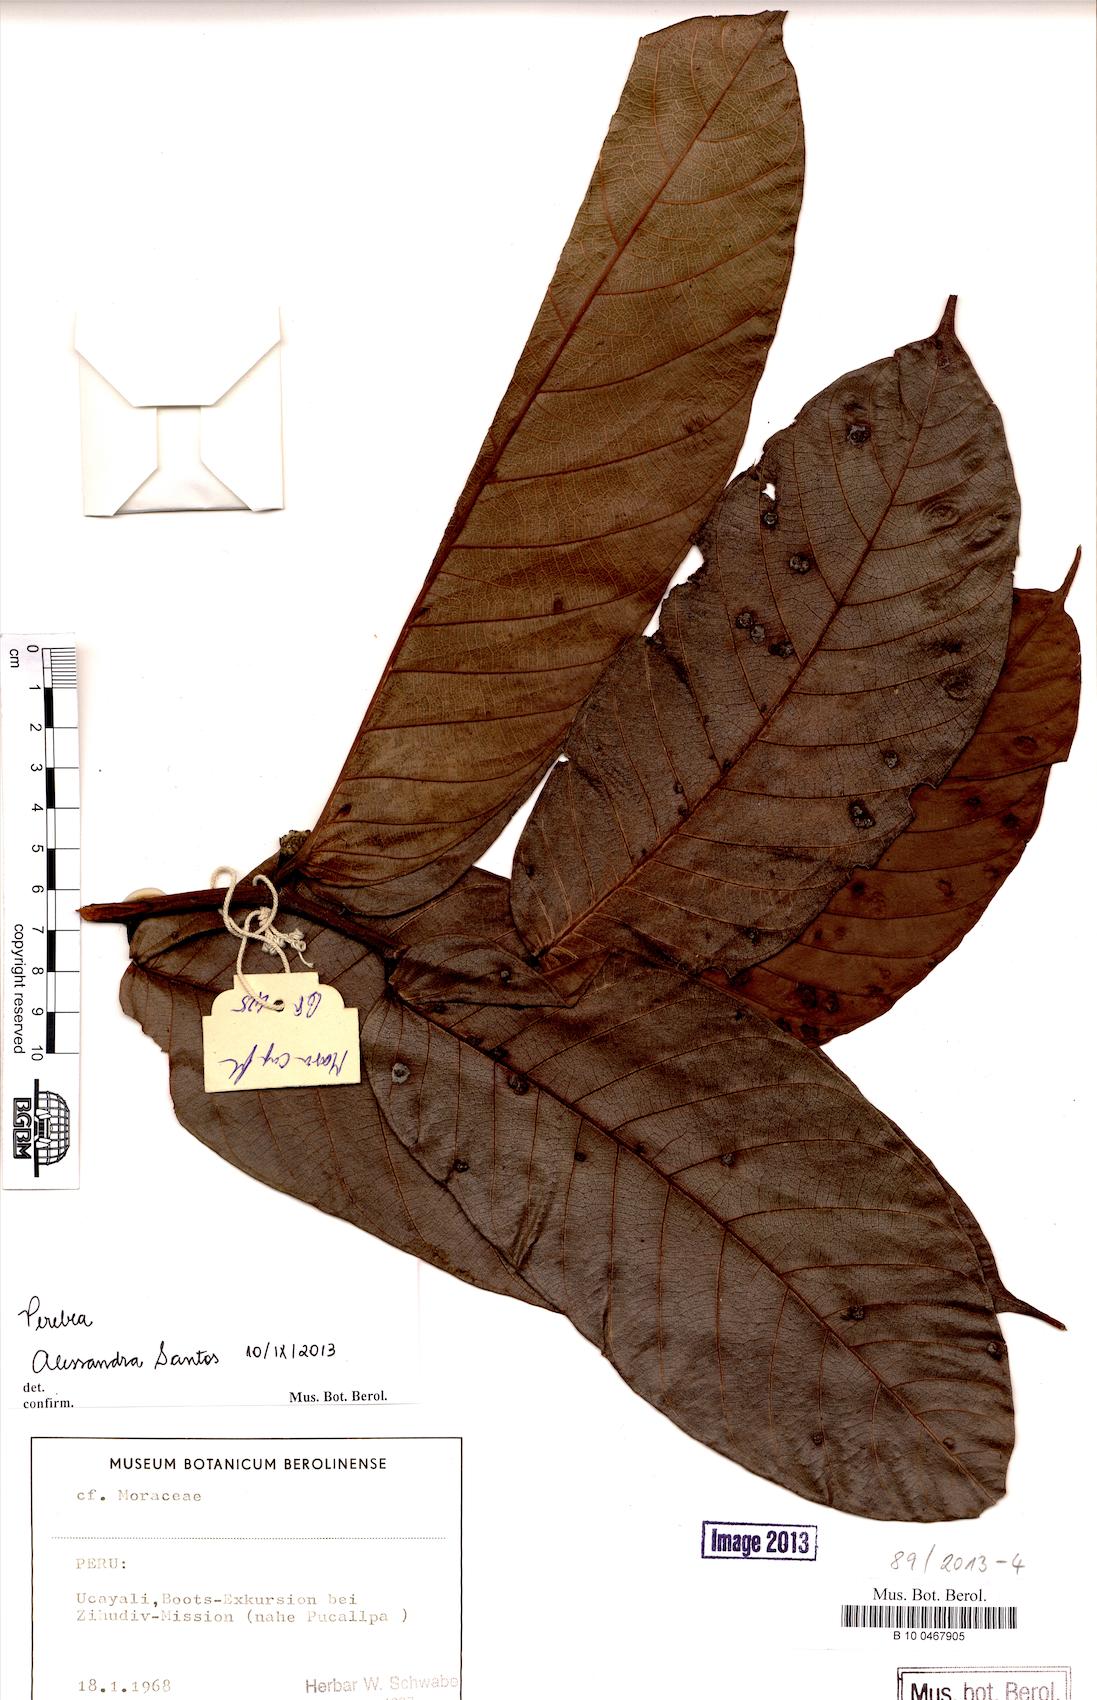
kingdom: Plantae
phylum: Tracheophyta
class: Magnoliopsida
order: Rosales
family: Moraceae
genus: Perebea
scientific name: Perebea
